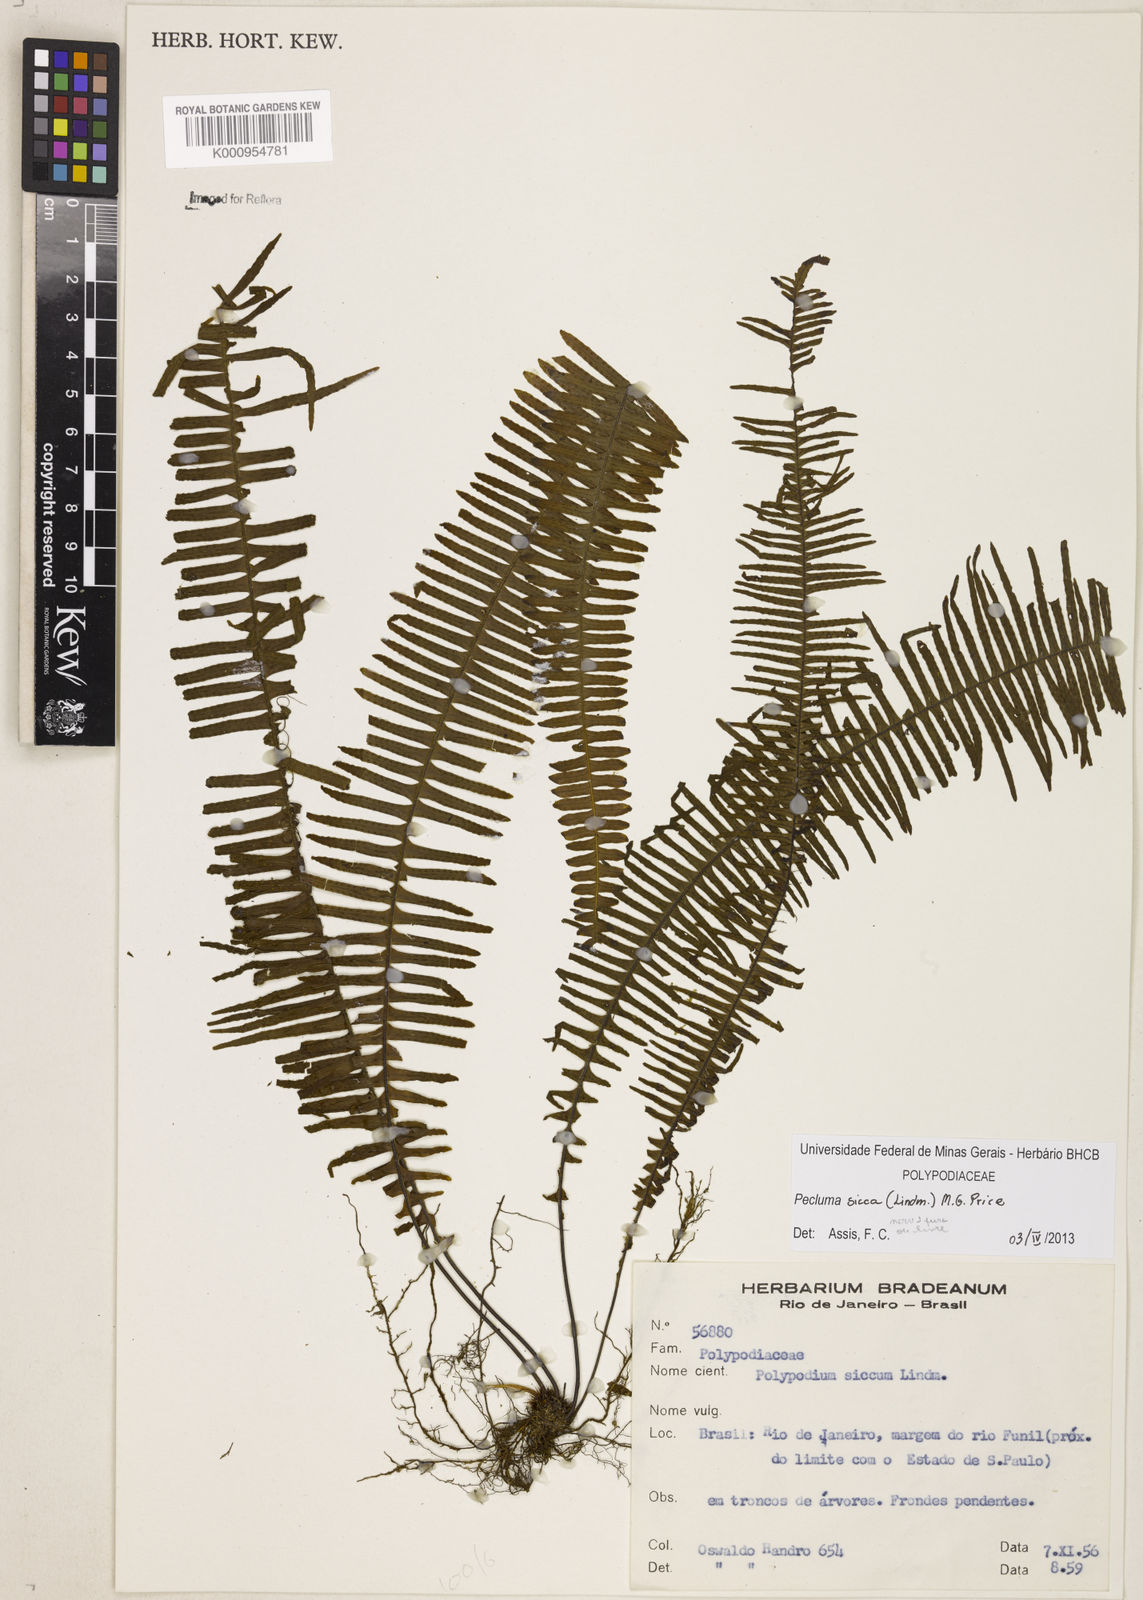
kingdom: Plantae
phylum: Tracheophyta
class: Polypodiopsida
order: Polypodiales
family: Polypodiaceae
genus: Pecluma
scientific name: Pecluma sicca
